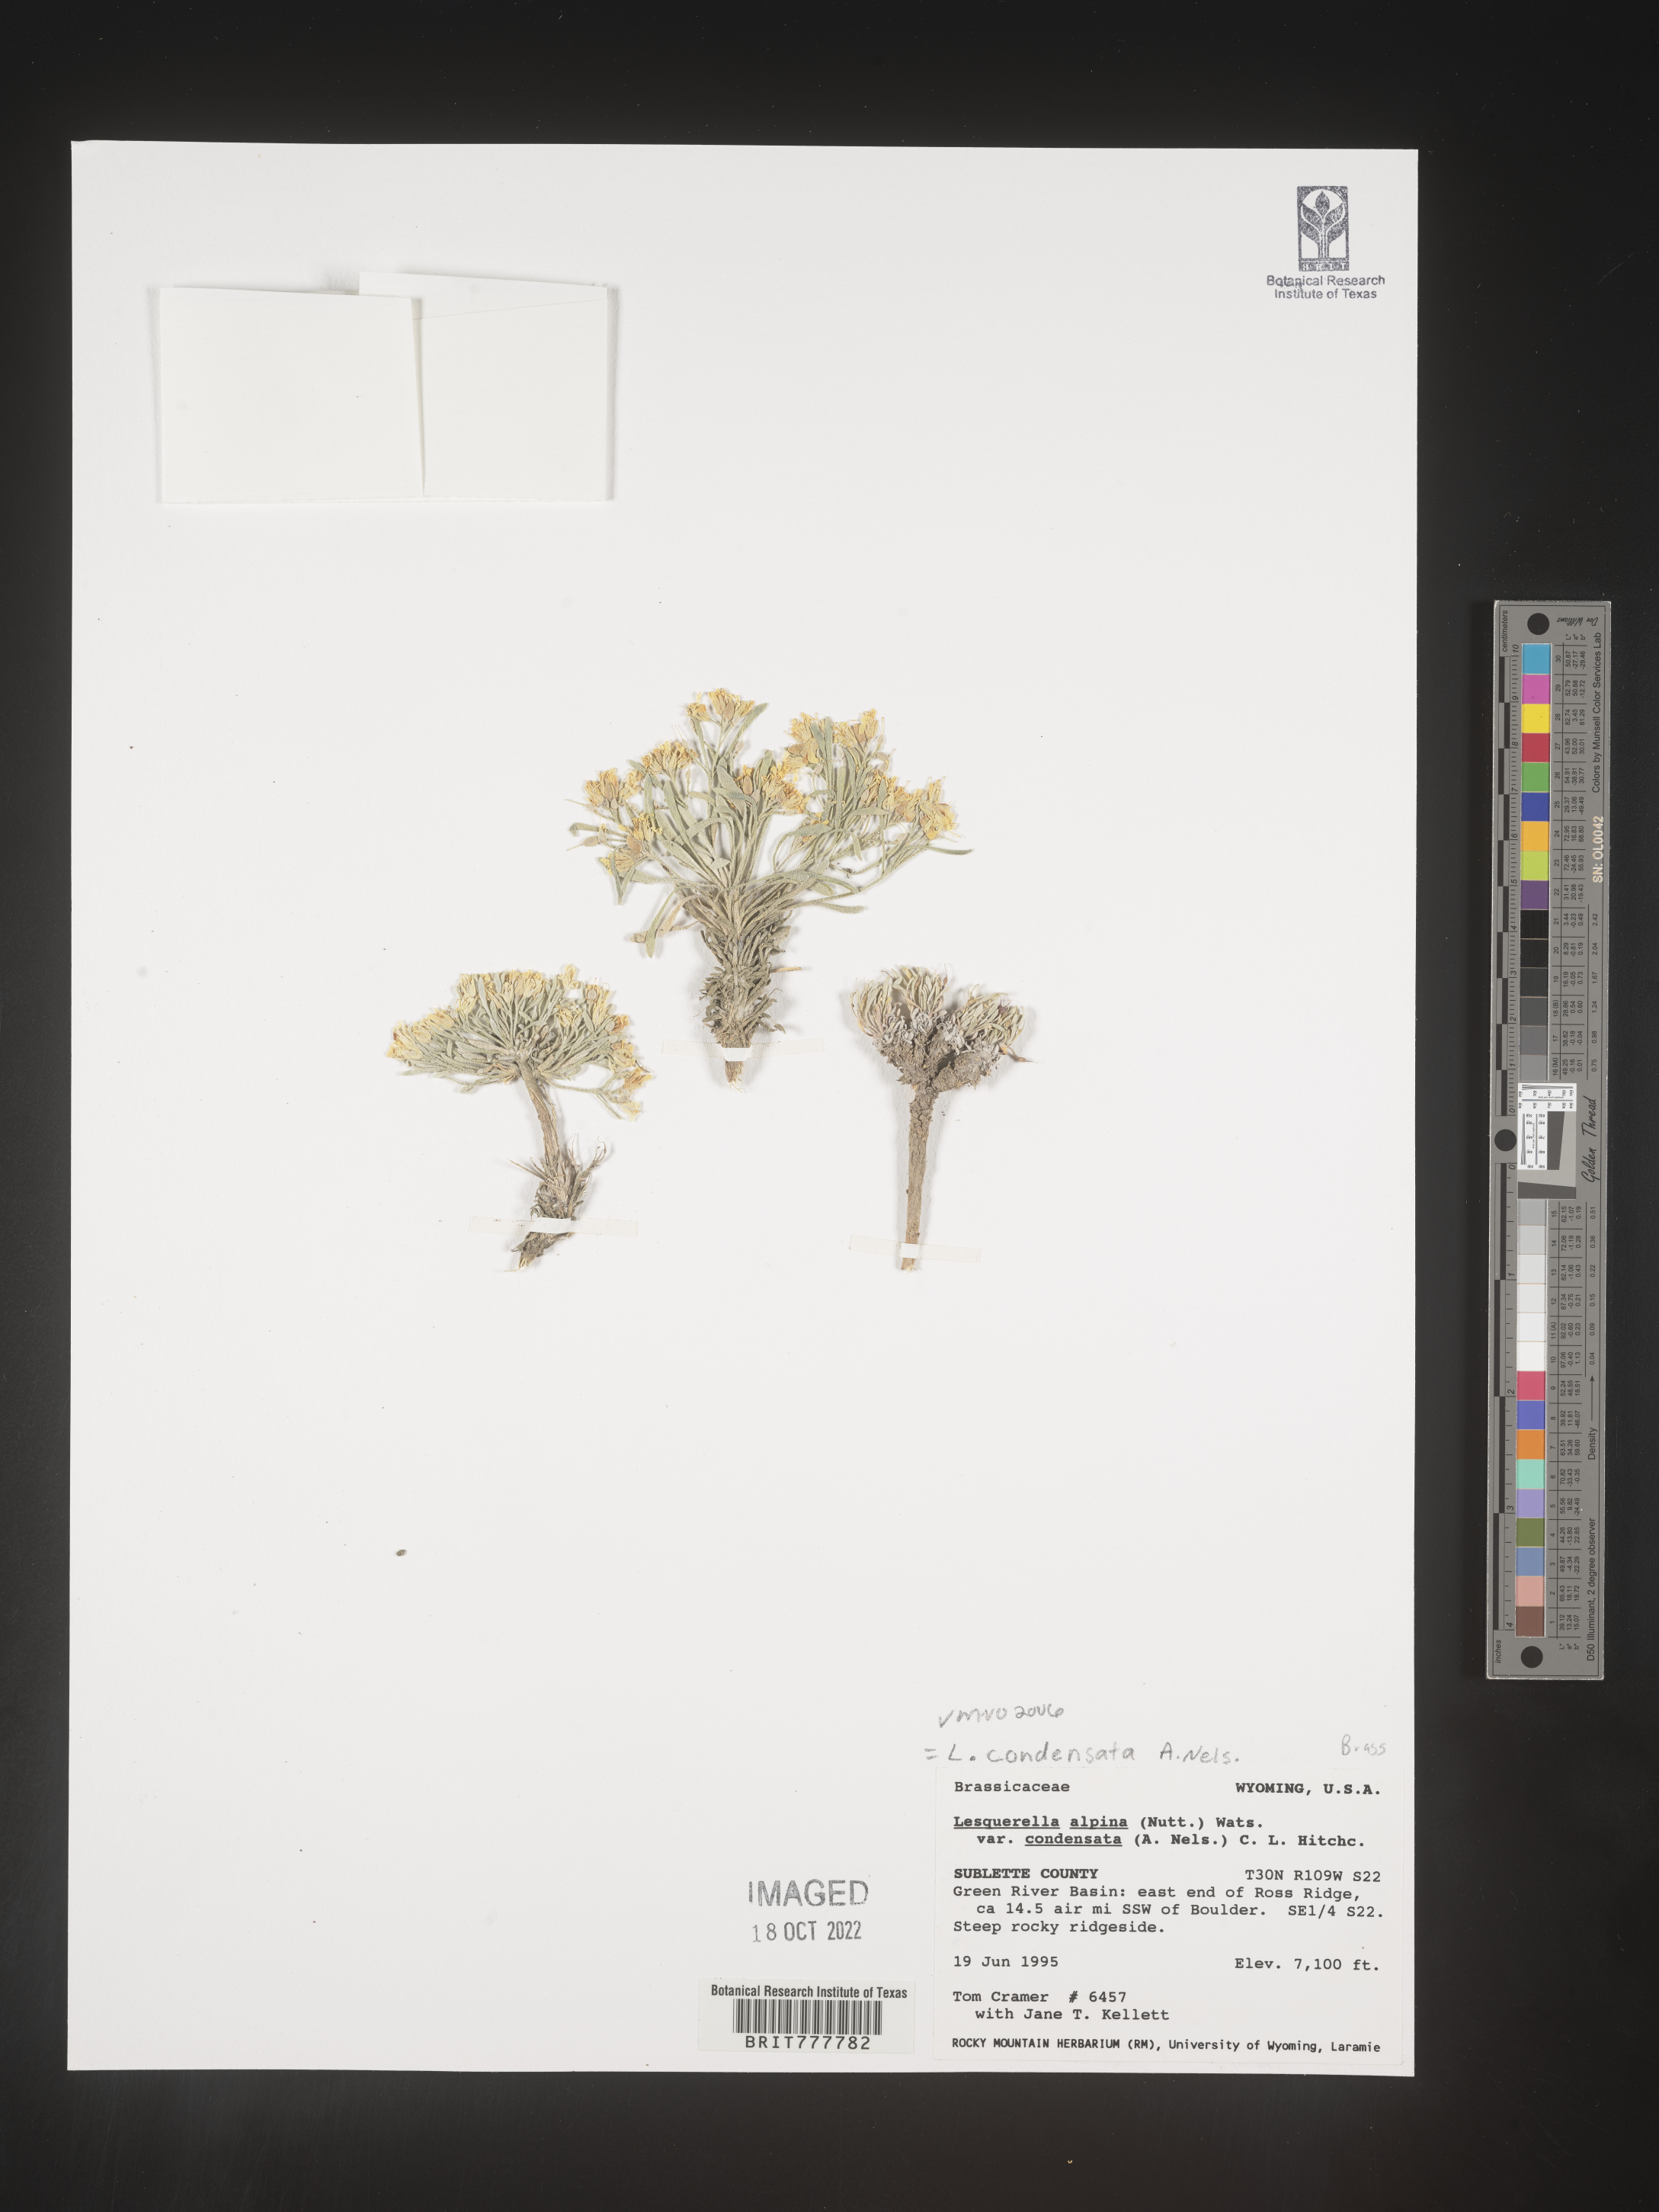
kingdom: Chromista
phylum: Cercozoa
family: Psammonobiotidae
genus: Lesquerella
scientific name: Lesquerella
